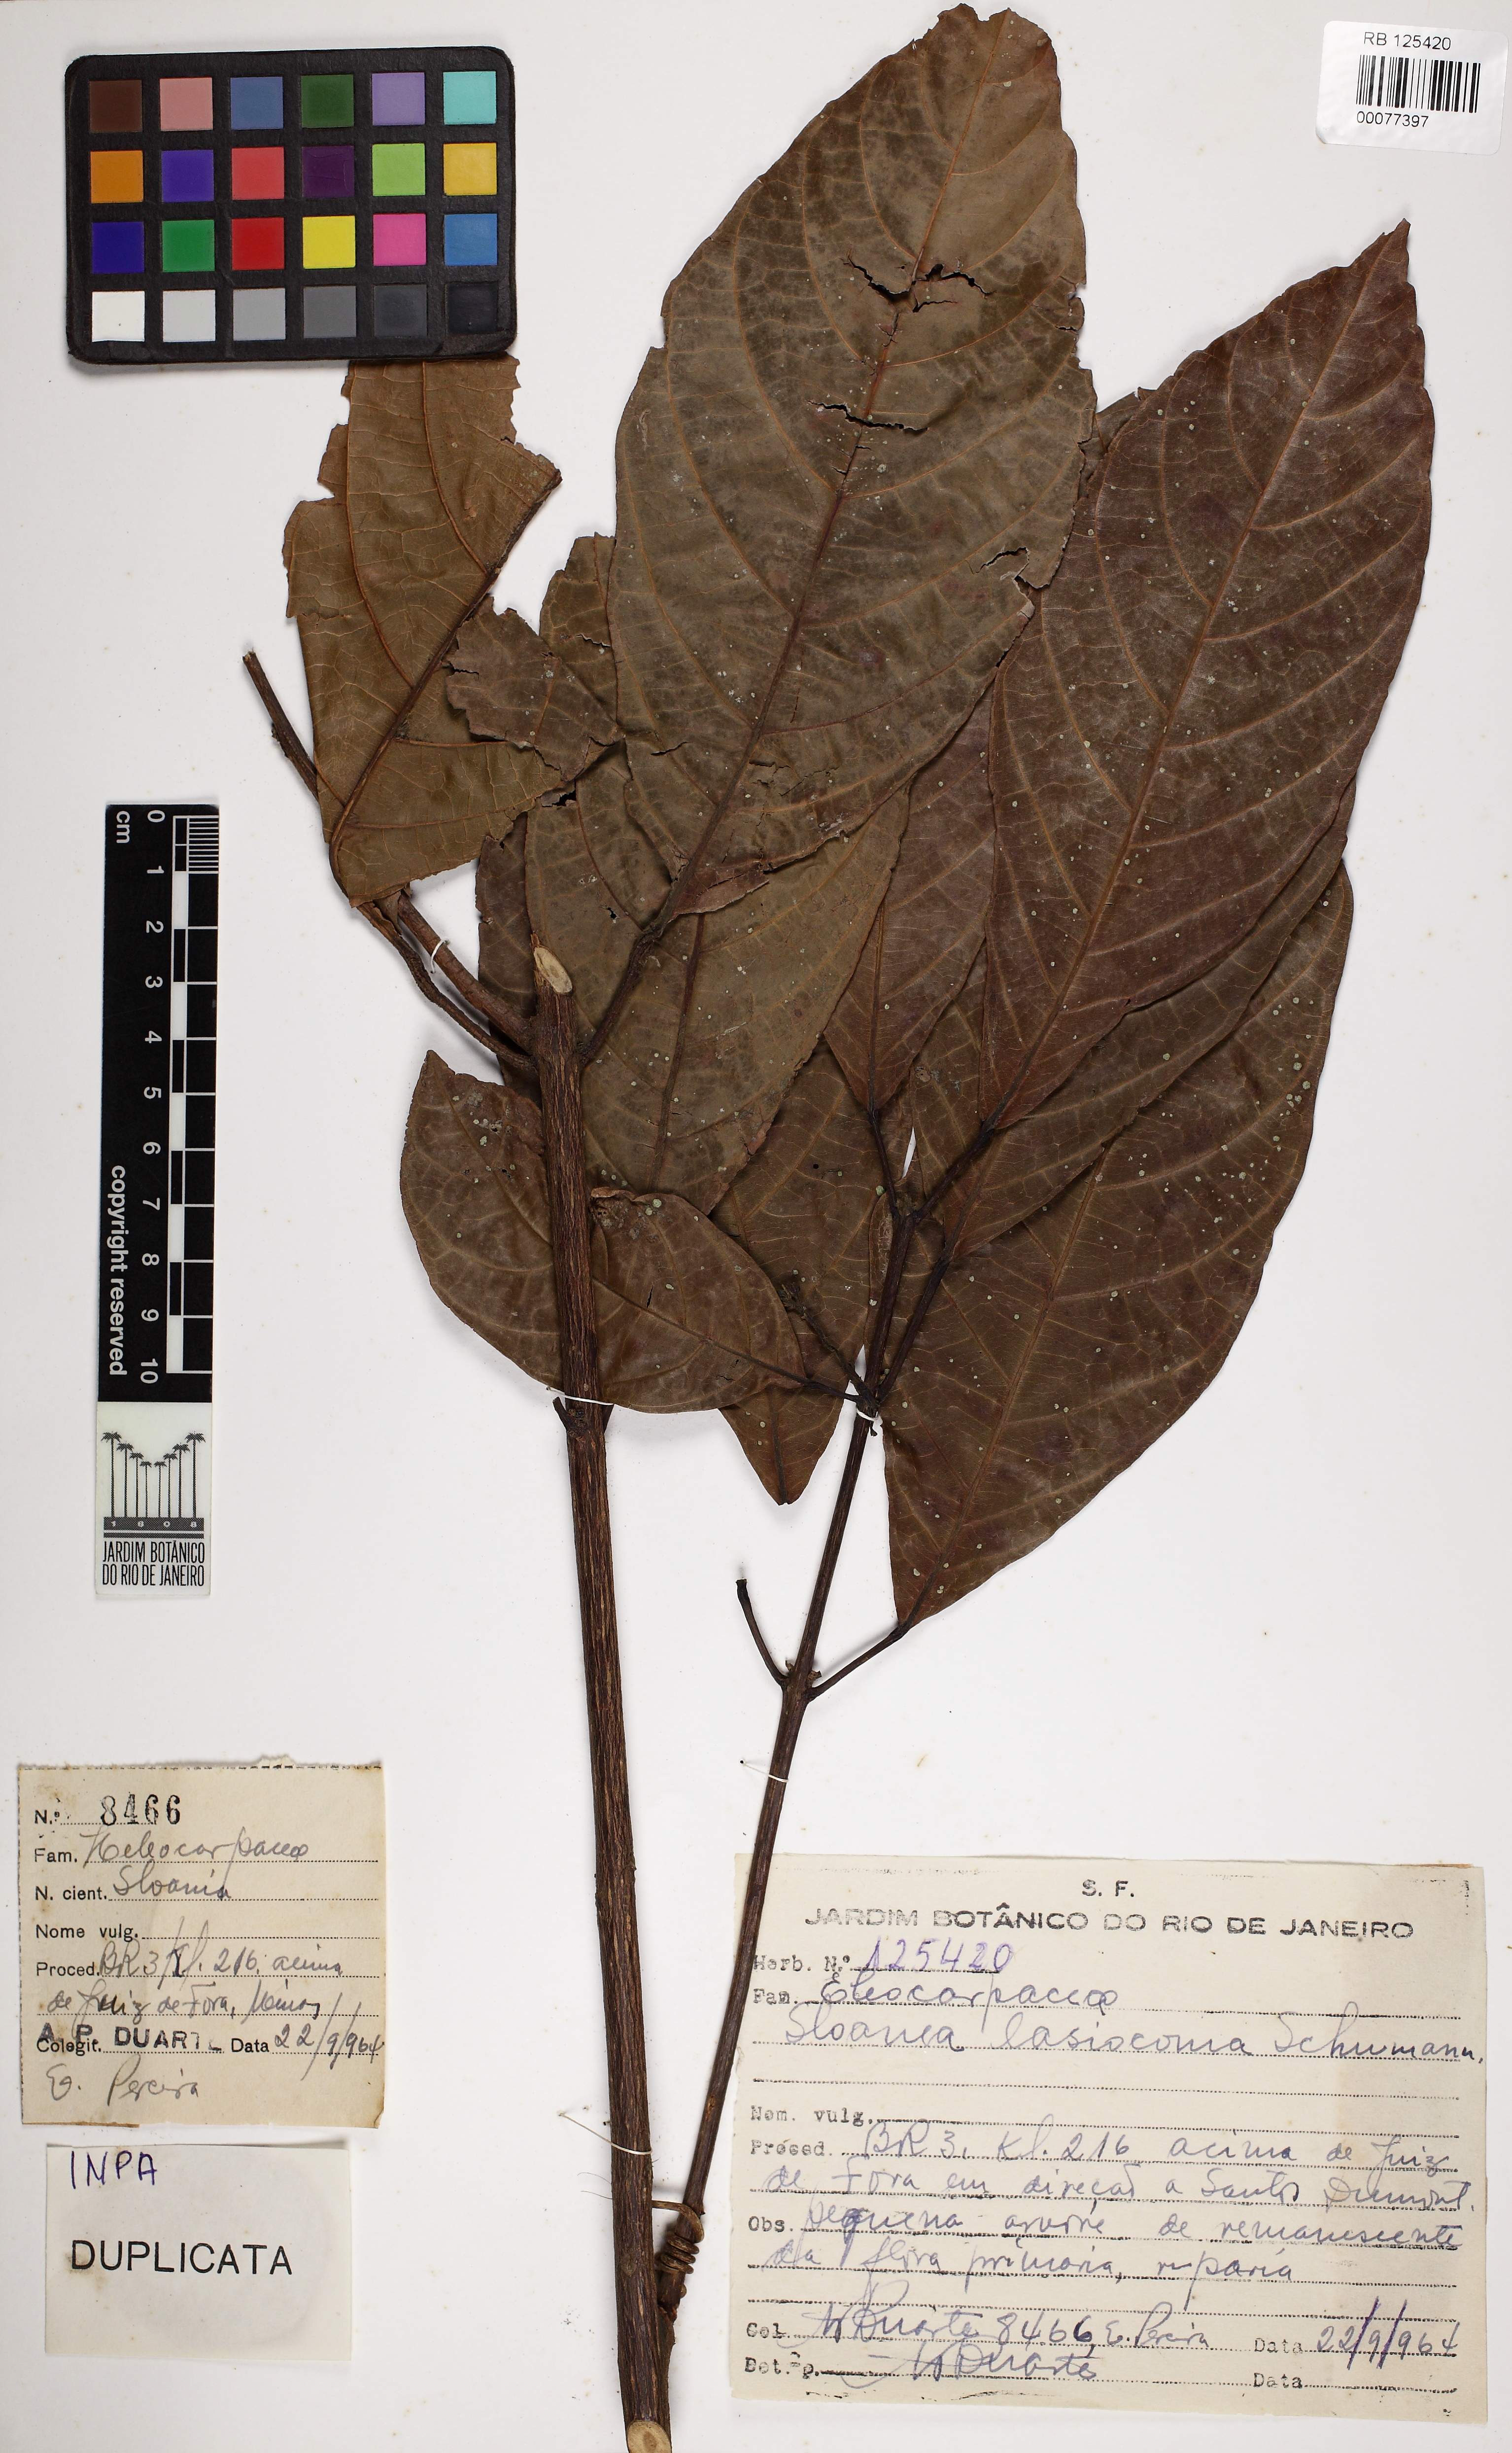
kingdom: Plantae
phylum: Tracheophyta
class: Magnoliopsida
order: Oxalidales
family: Elaeocarpaceae
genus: Sloanea
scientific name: Sloanea hirsuta
